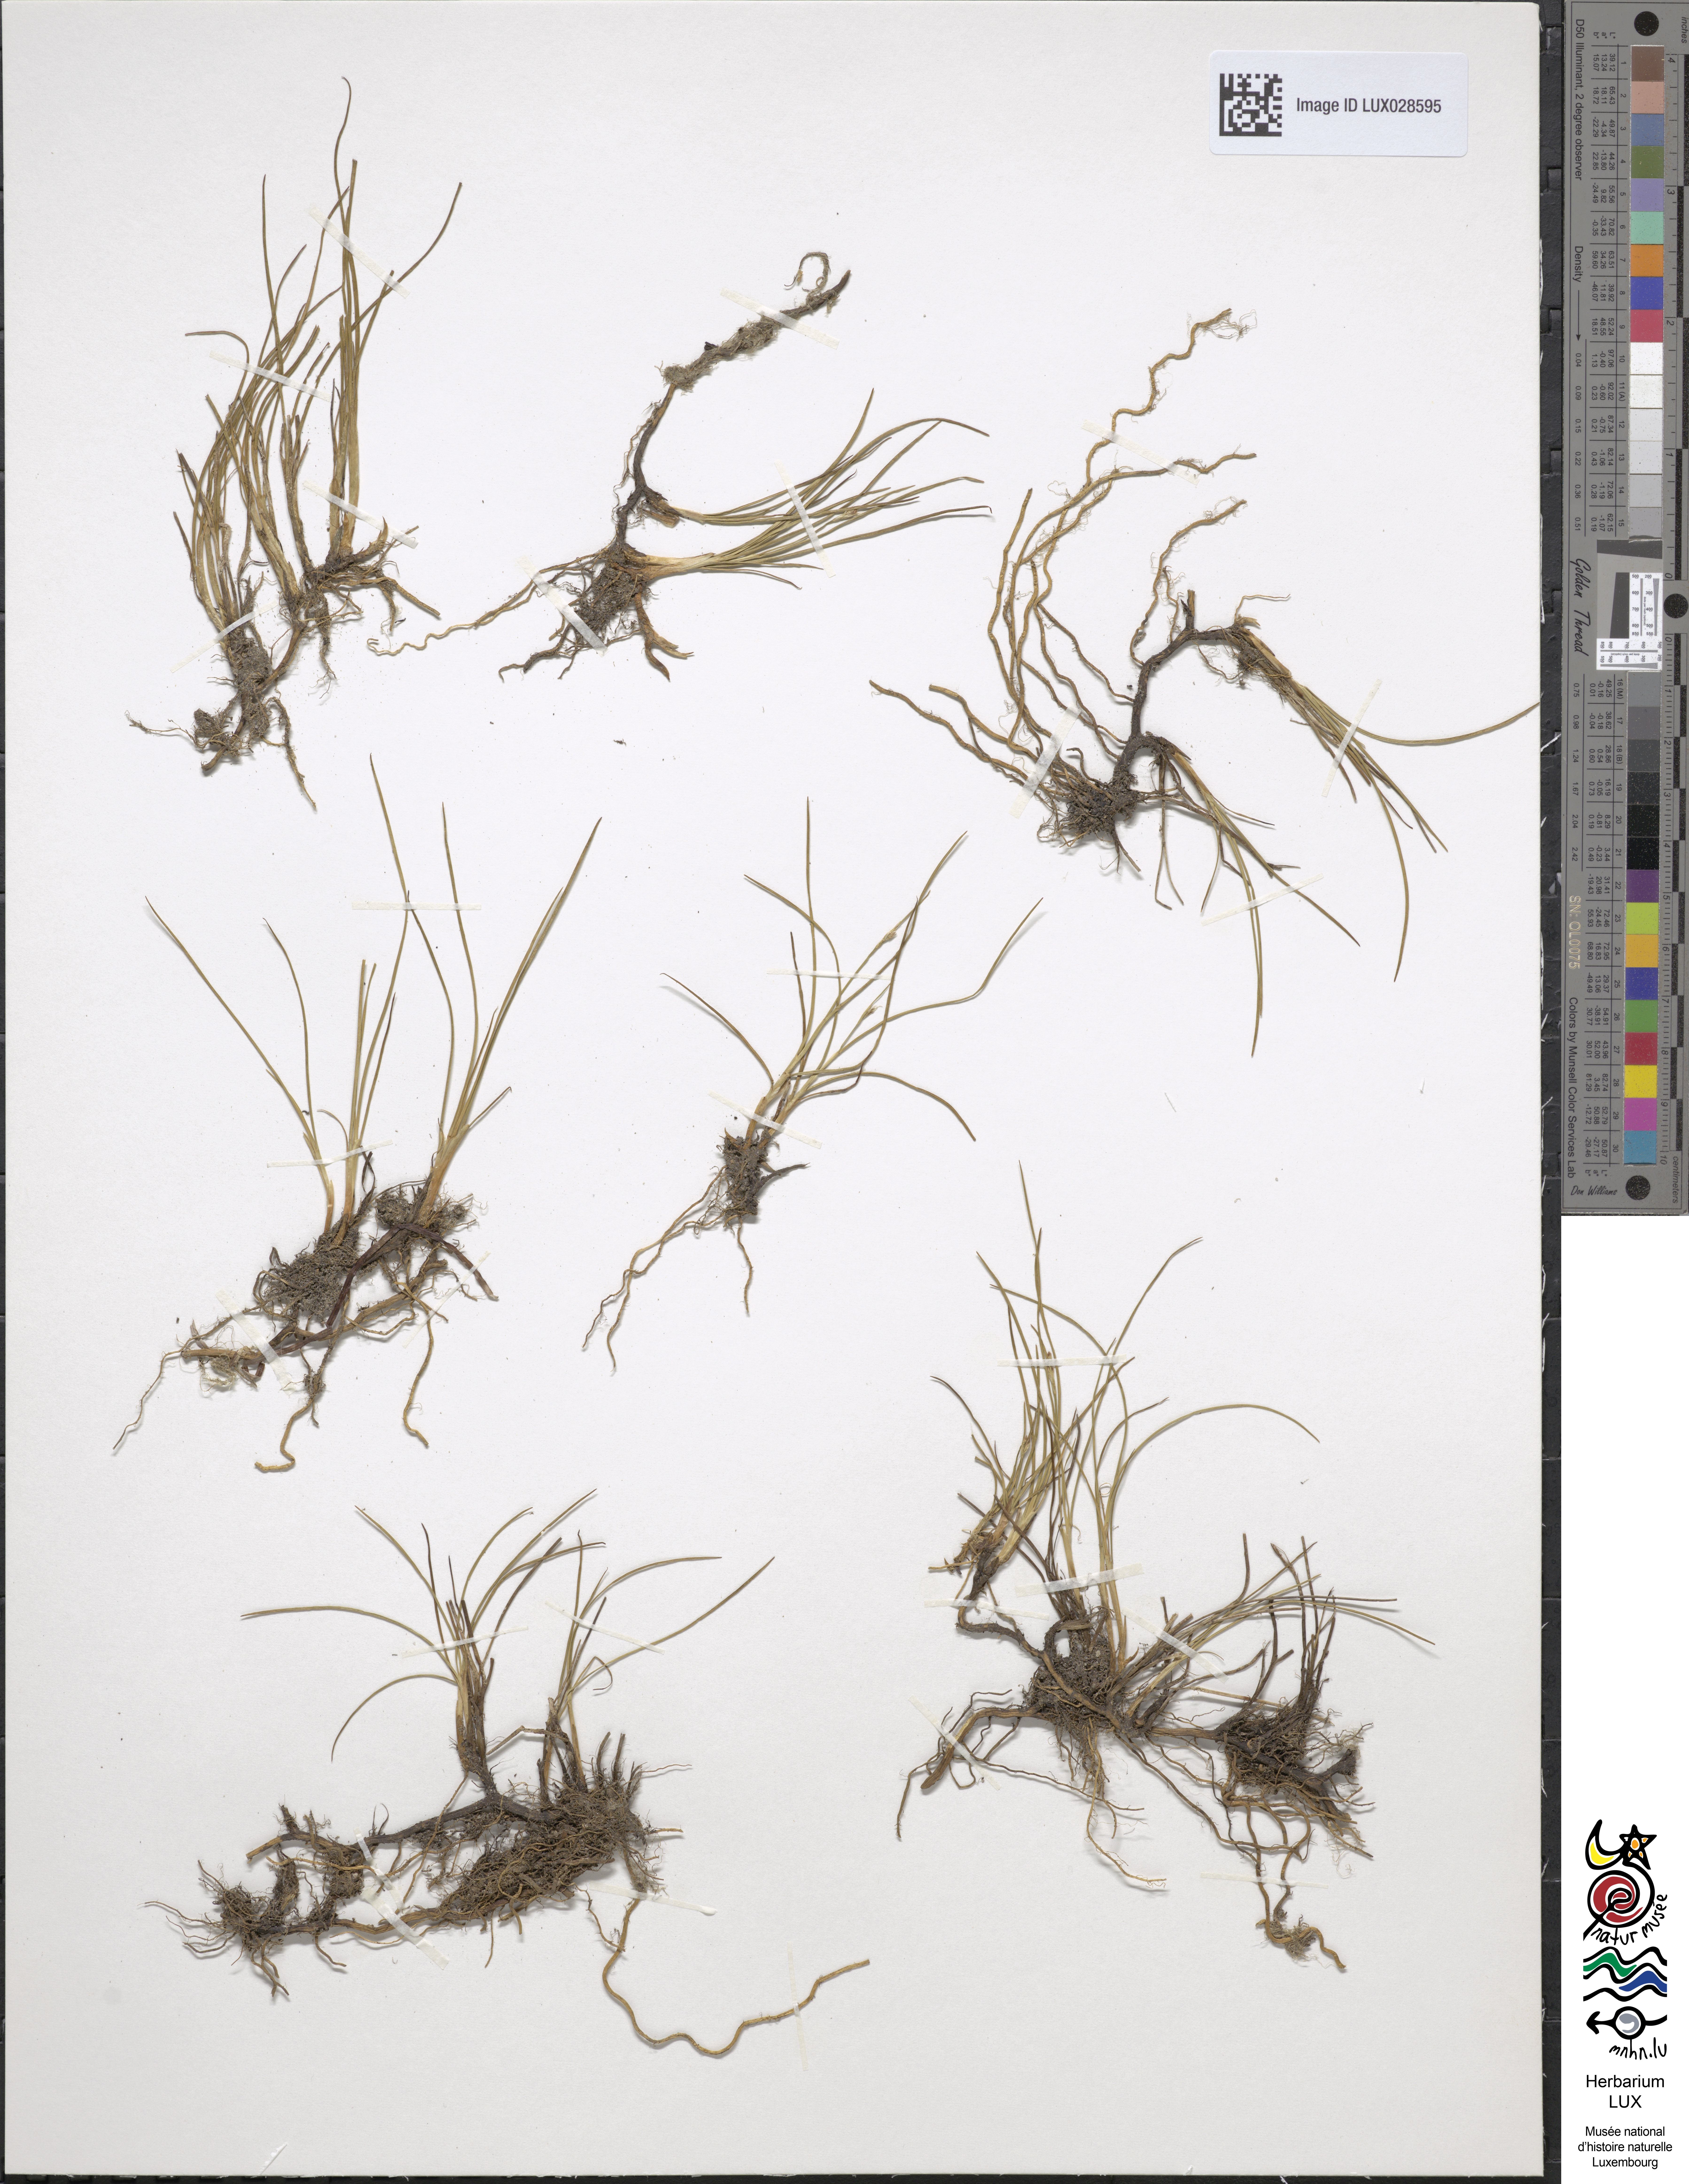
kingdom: Plantae
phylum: Tracheophyta
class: Liliopsida
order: Poales
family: Juncaceae
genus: Juncus
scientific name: Juncus gerardi
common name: Saltmarsh rush
